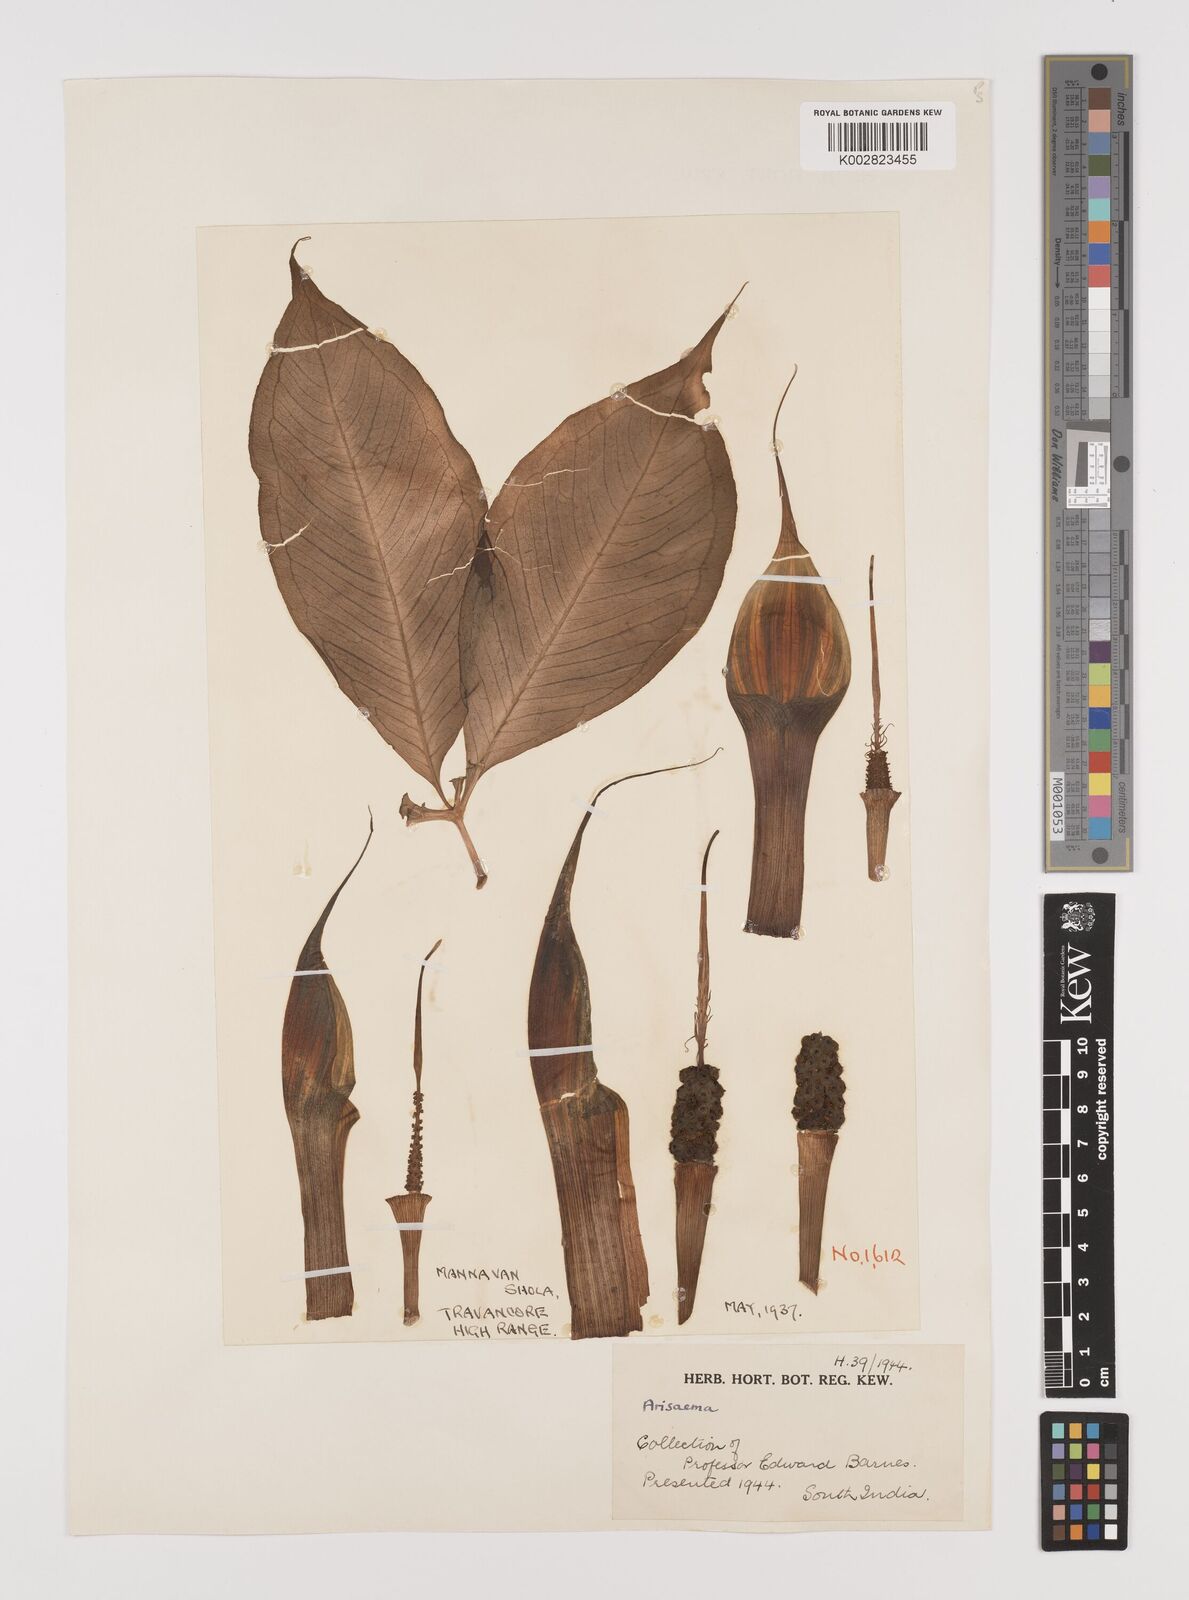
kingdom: Plantae
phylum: Tracheophyta
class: Liliopsida
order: Alismatales
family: Araceae
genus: Arisaema
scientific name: Arisaema
